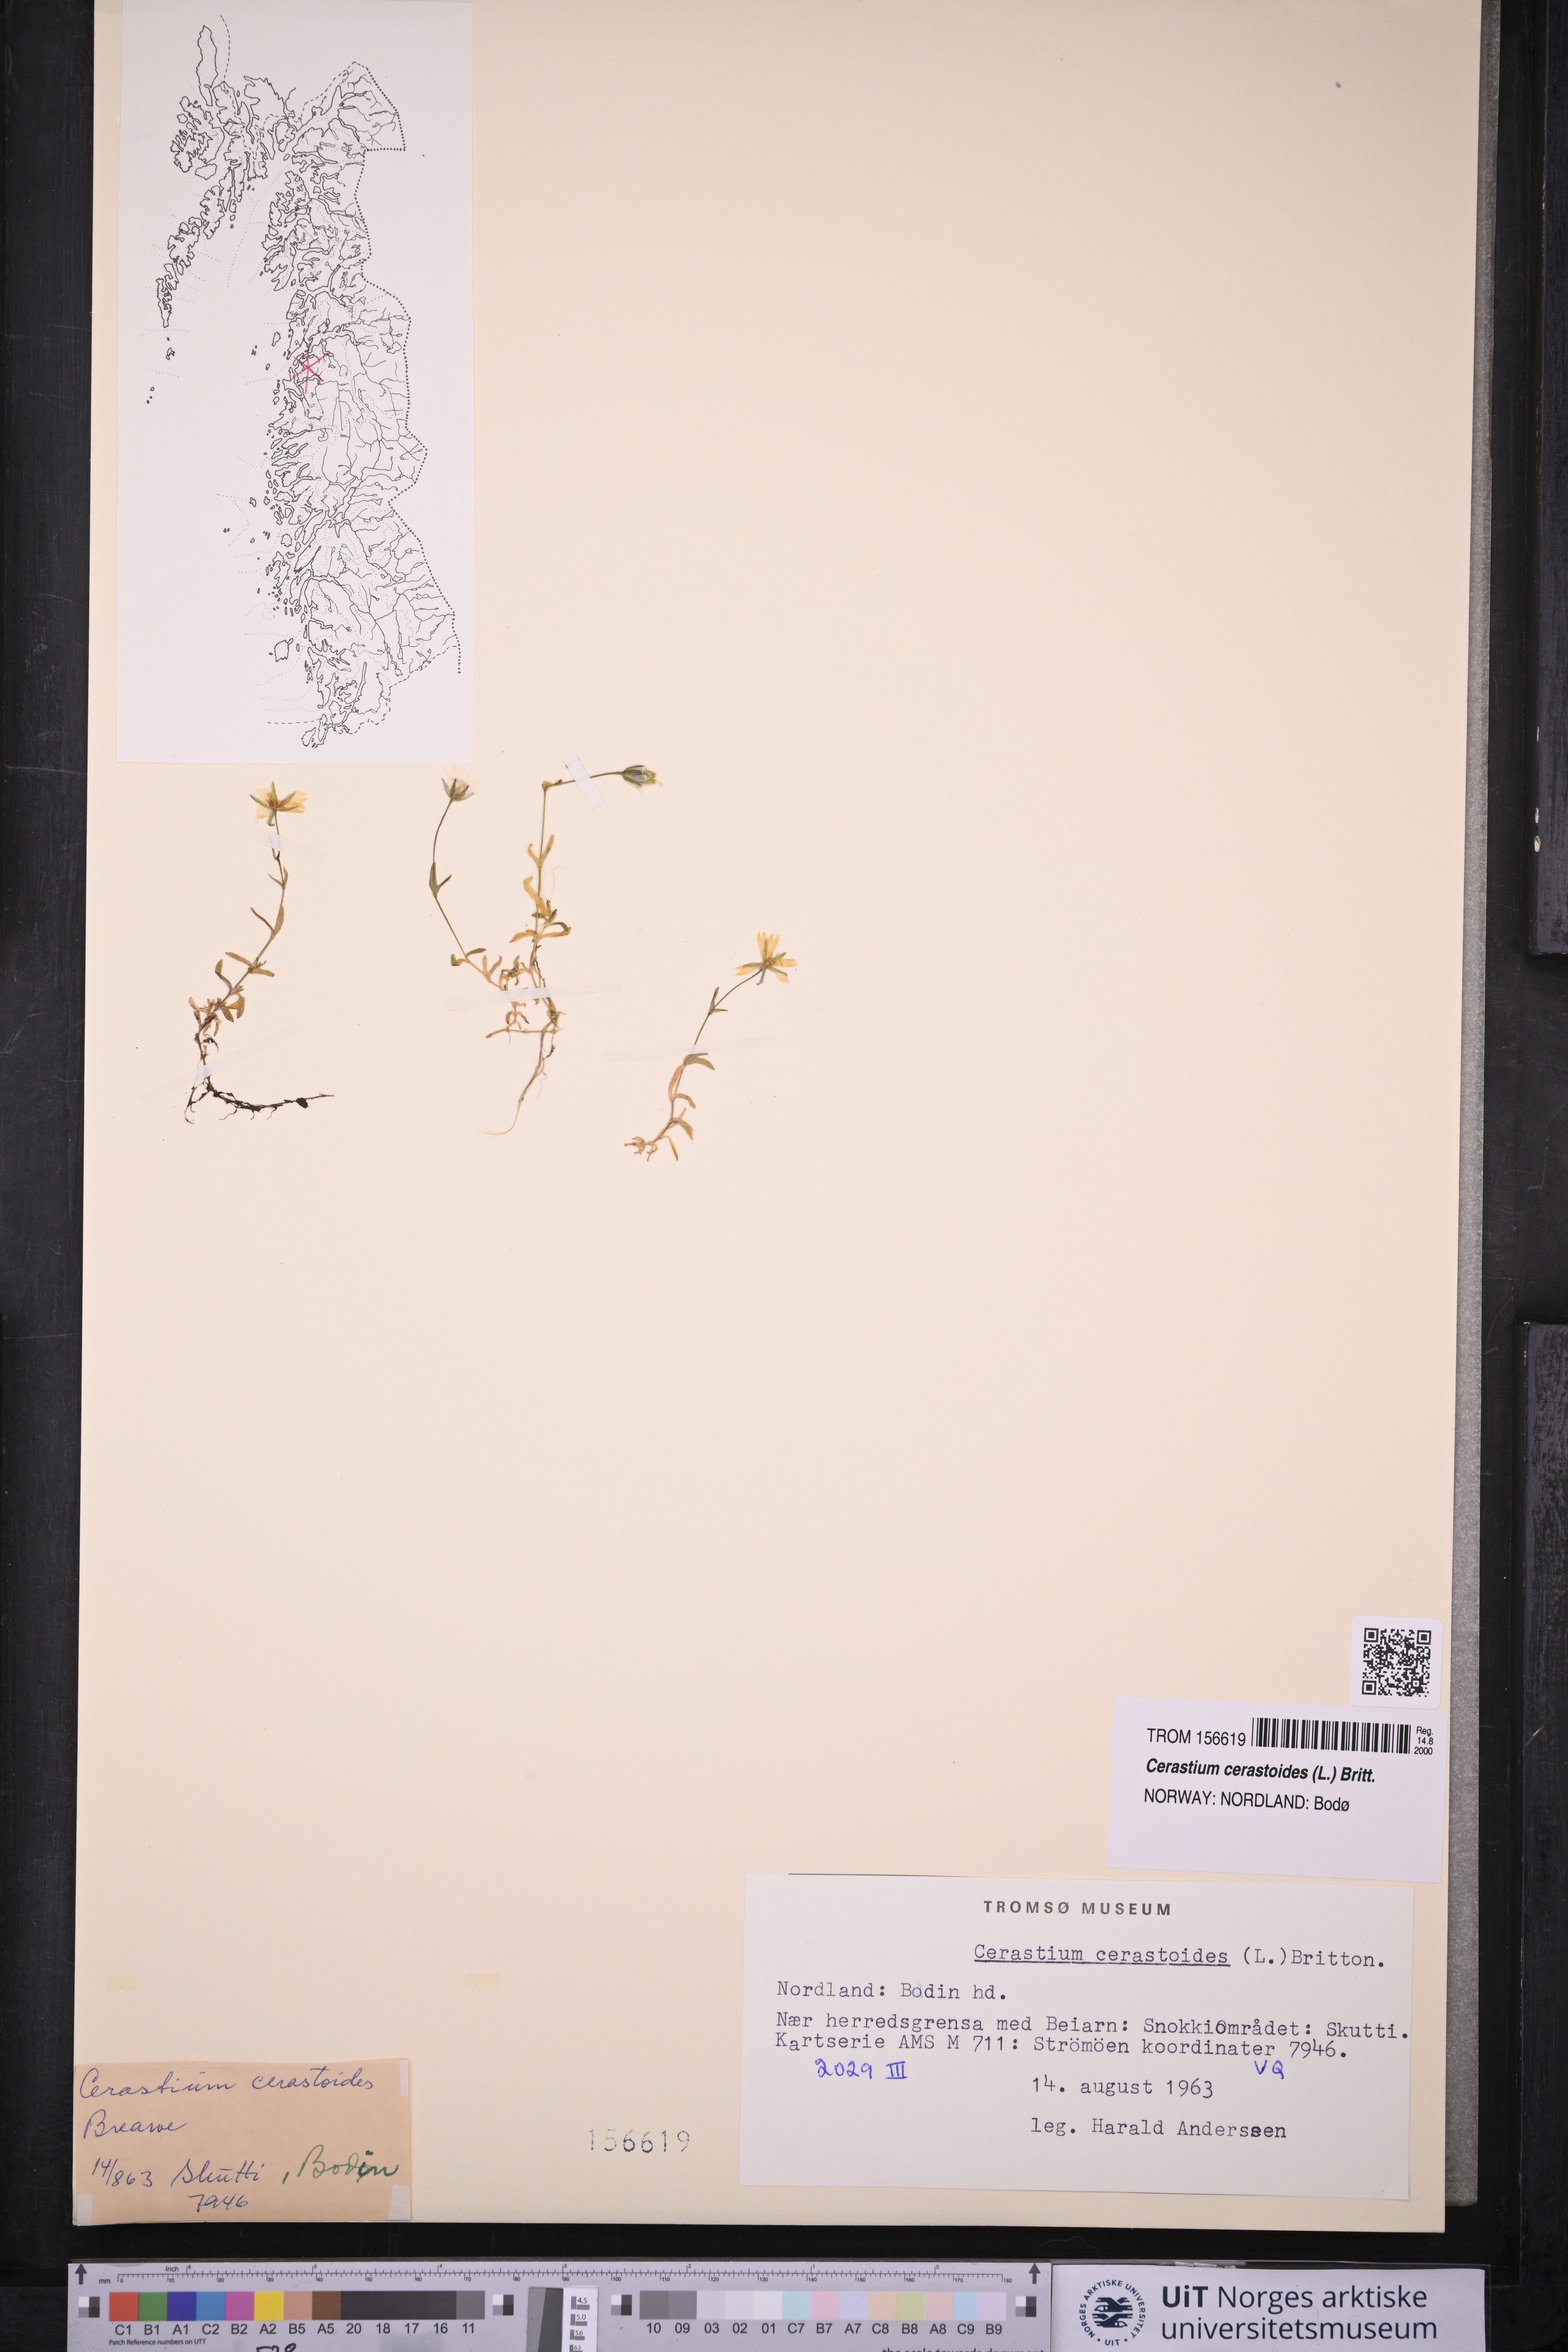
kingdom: Plantae
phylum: Tracheophyta
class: Magnoliopsida
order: Caryophyllales
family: Caryophyllaceae
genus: Dichodon
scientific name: Dichodon cerastoides
